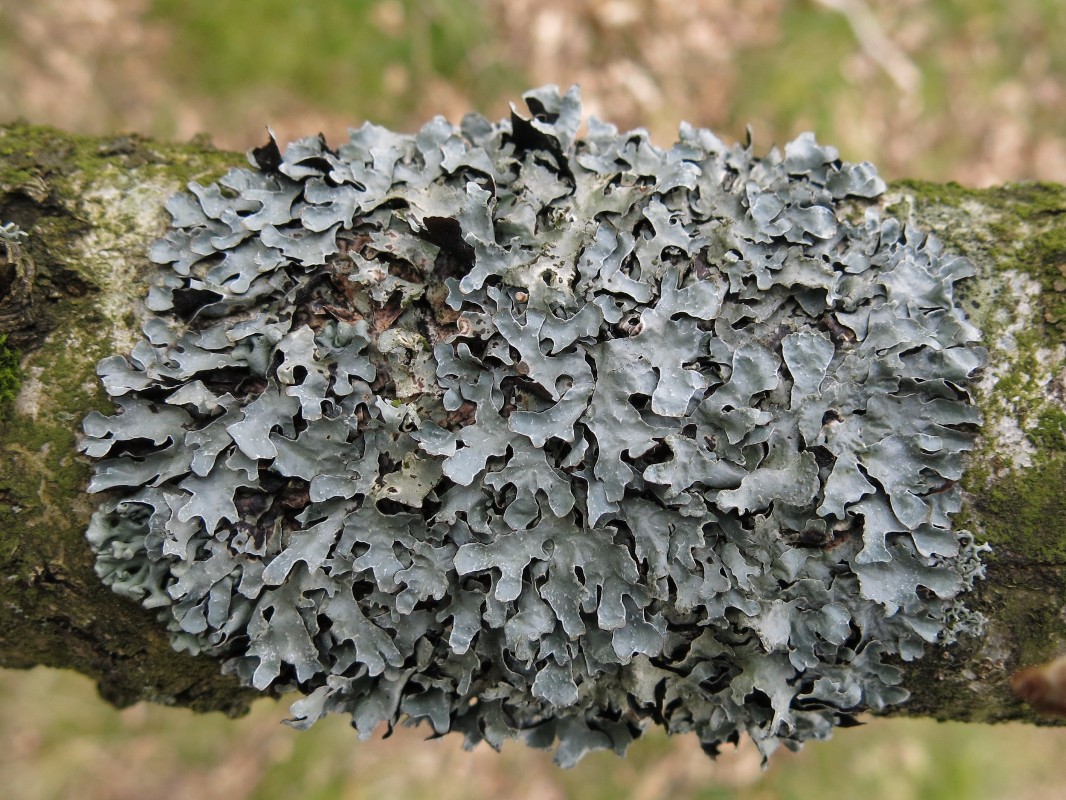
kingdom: Fungi
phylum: Ascomycota
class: Lecanoromycetes
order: Lecanorales
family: Parmeliaceae
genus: Parmelia
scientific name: Parmelia sulcata
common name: rynket skållav
